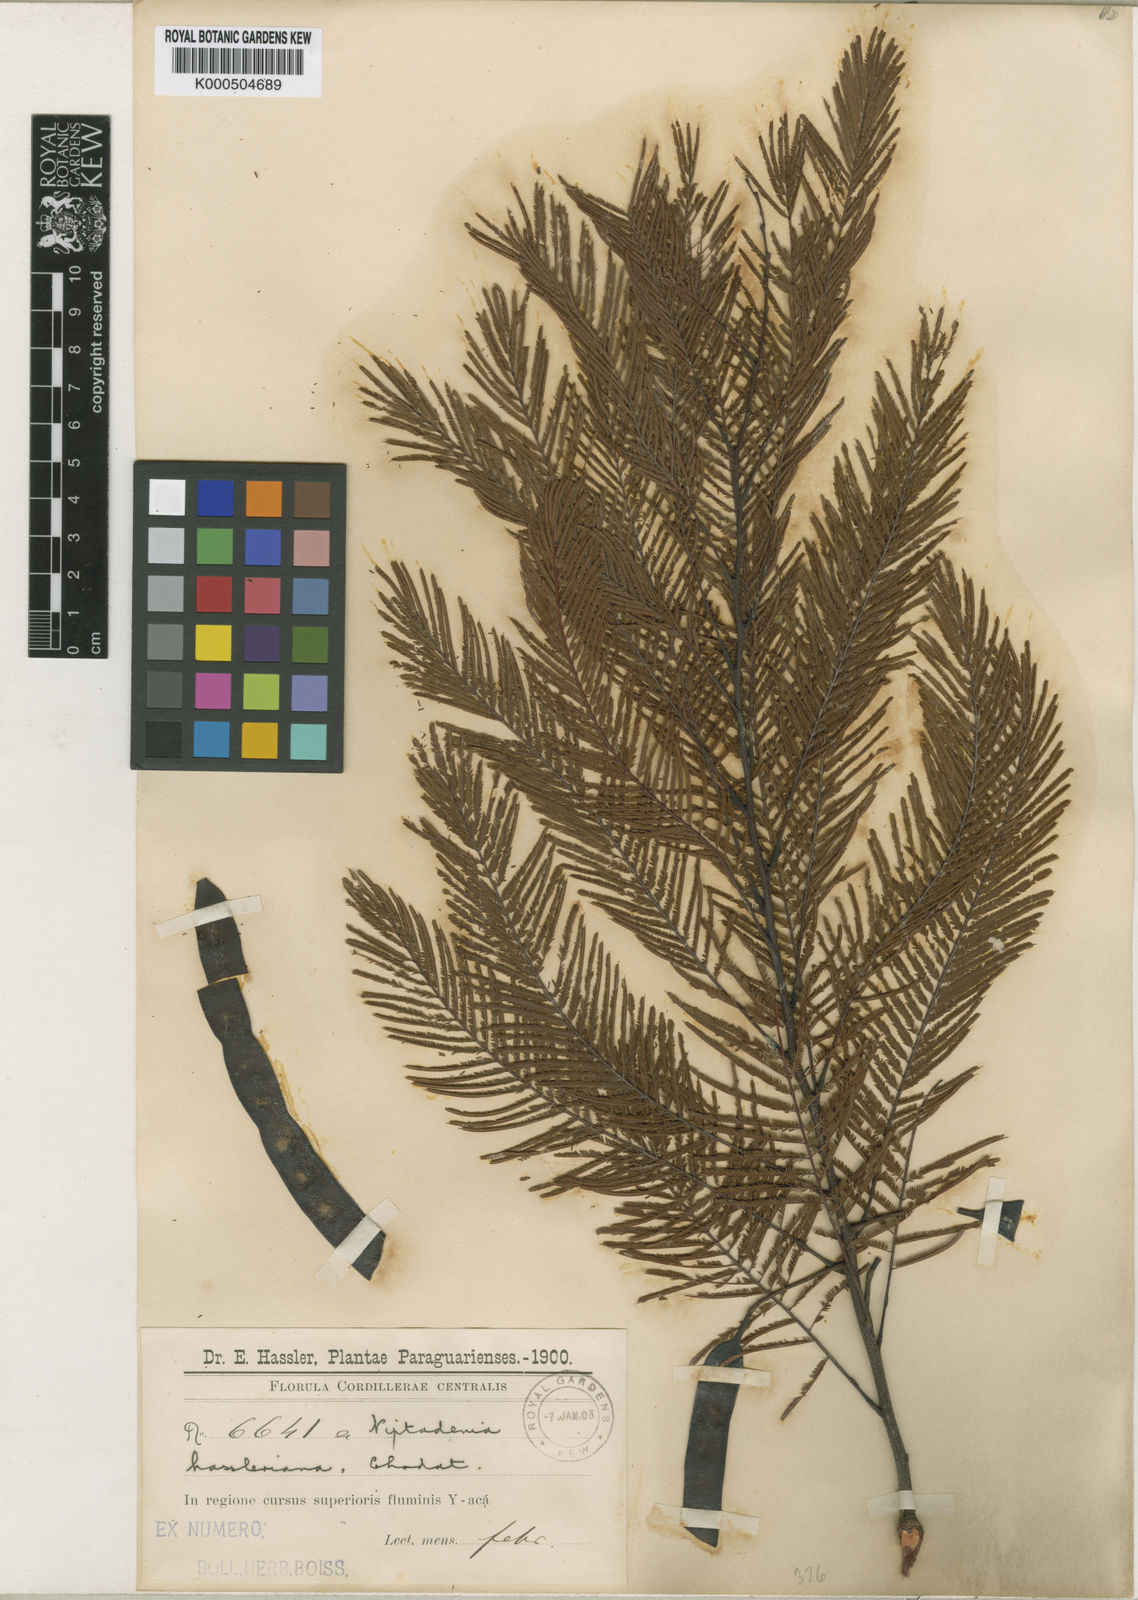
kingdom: Plantae
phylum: Tracheophyta
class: Magnoliopsida
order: Fabales
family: Fabaceae
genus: Anadenanthera
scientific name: Anadenanthera
